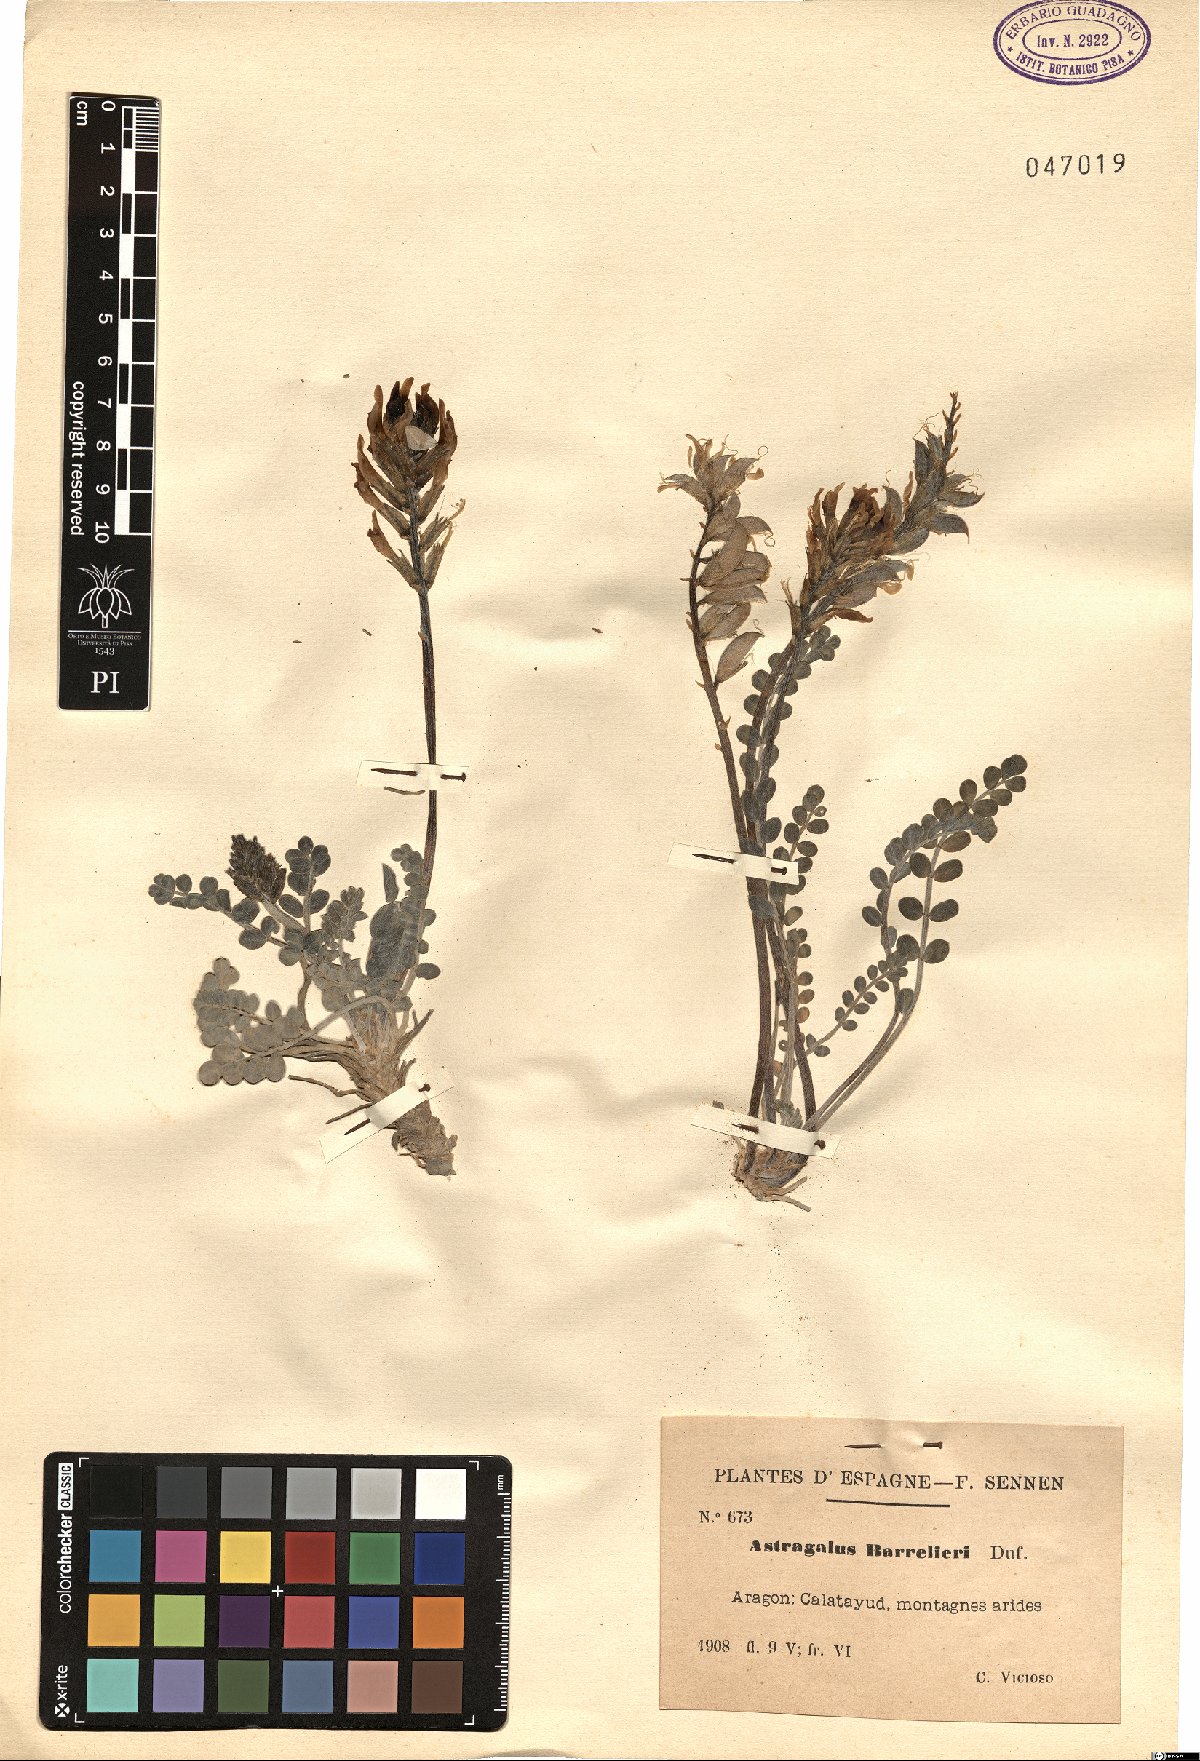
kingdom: Plantae
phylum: Tracheophyta
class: Magnoliopsida
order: Fabales
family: Fabaceae
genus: Astragalus
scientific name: Astragalus incanus
